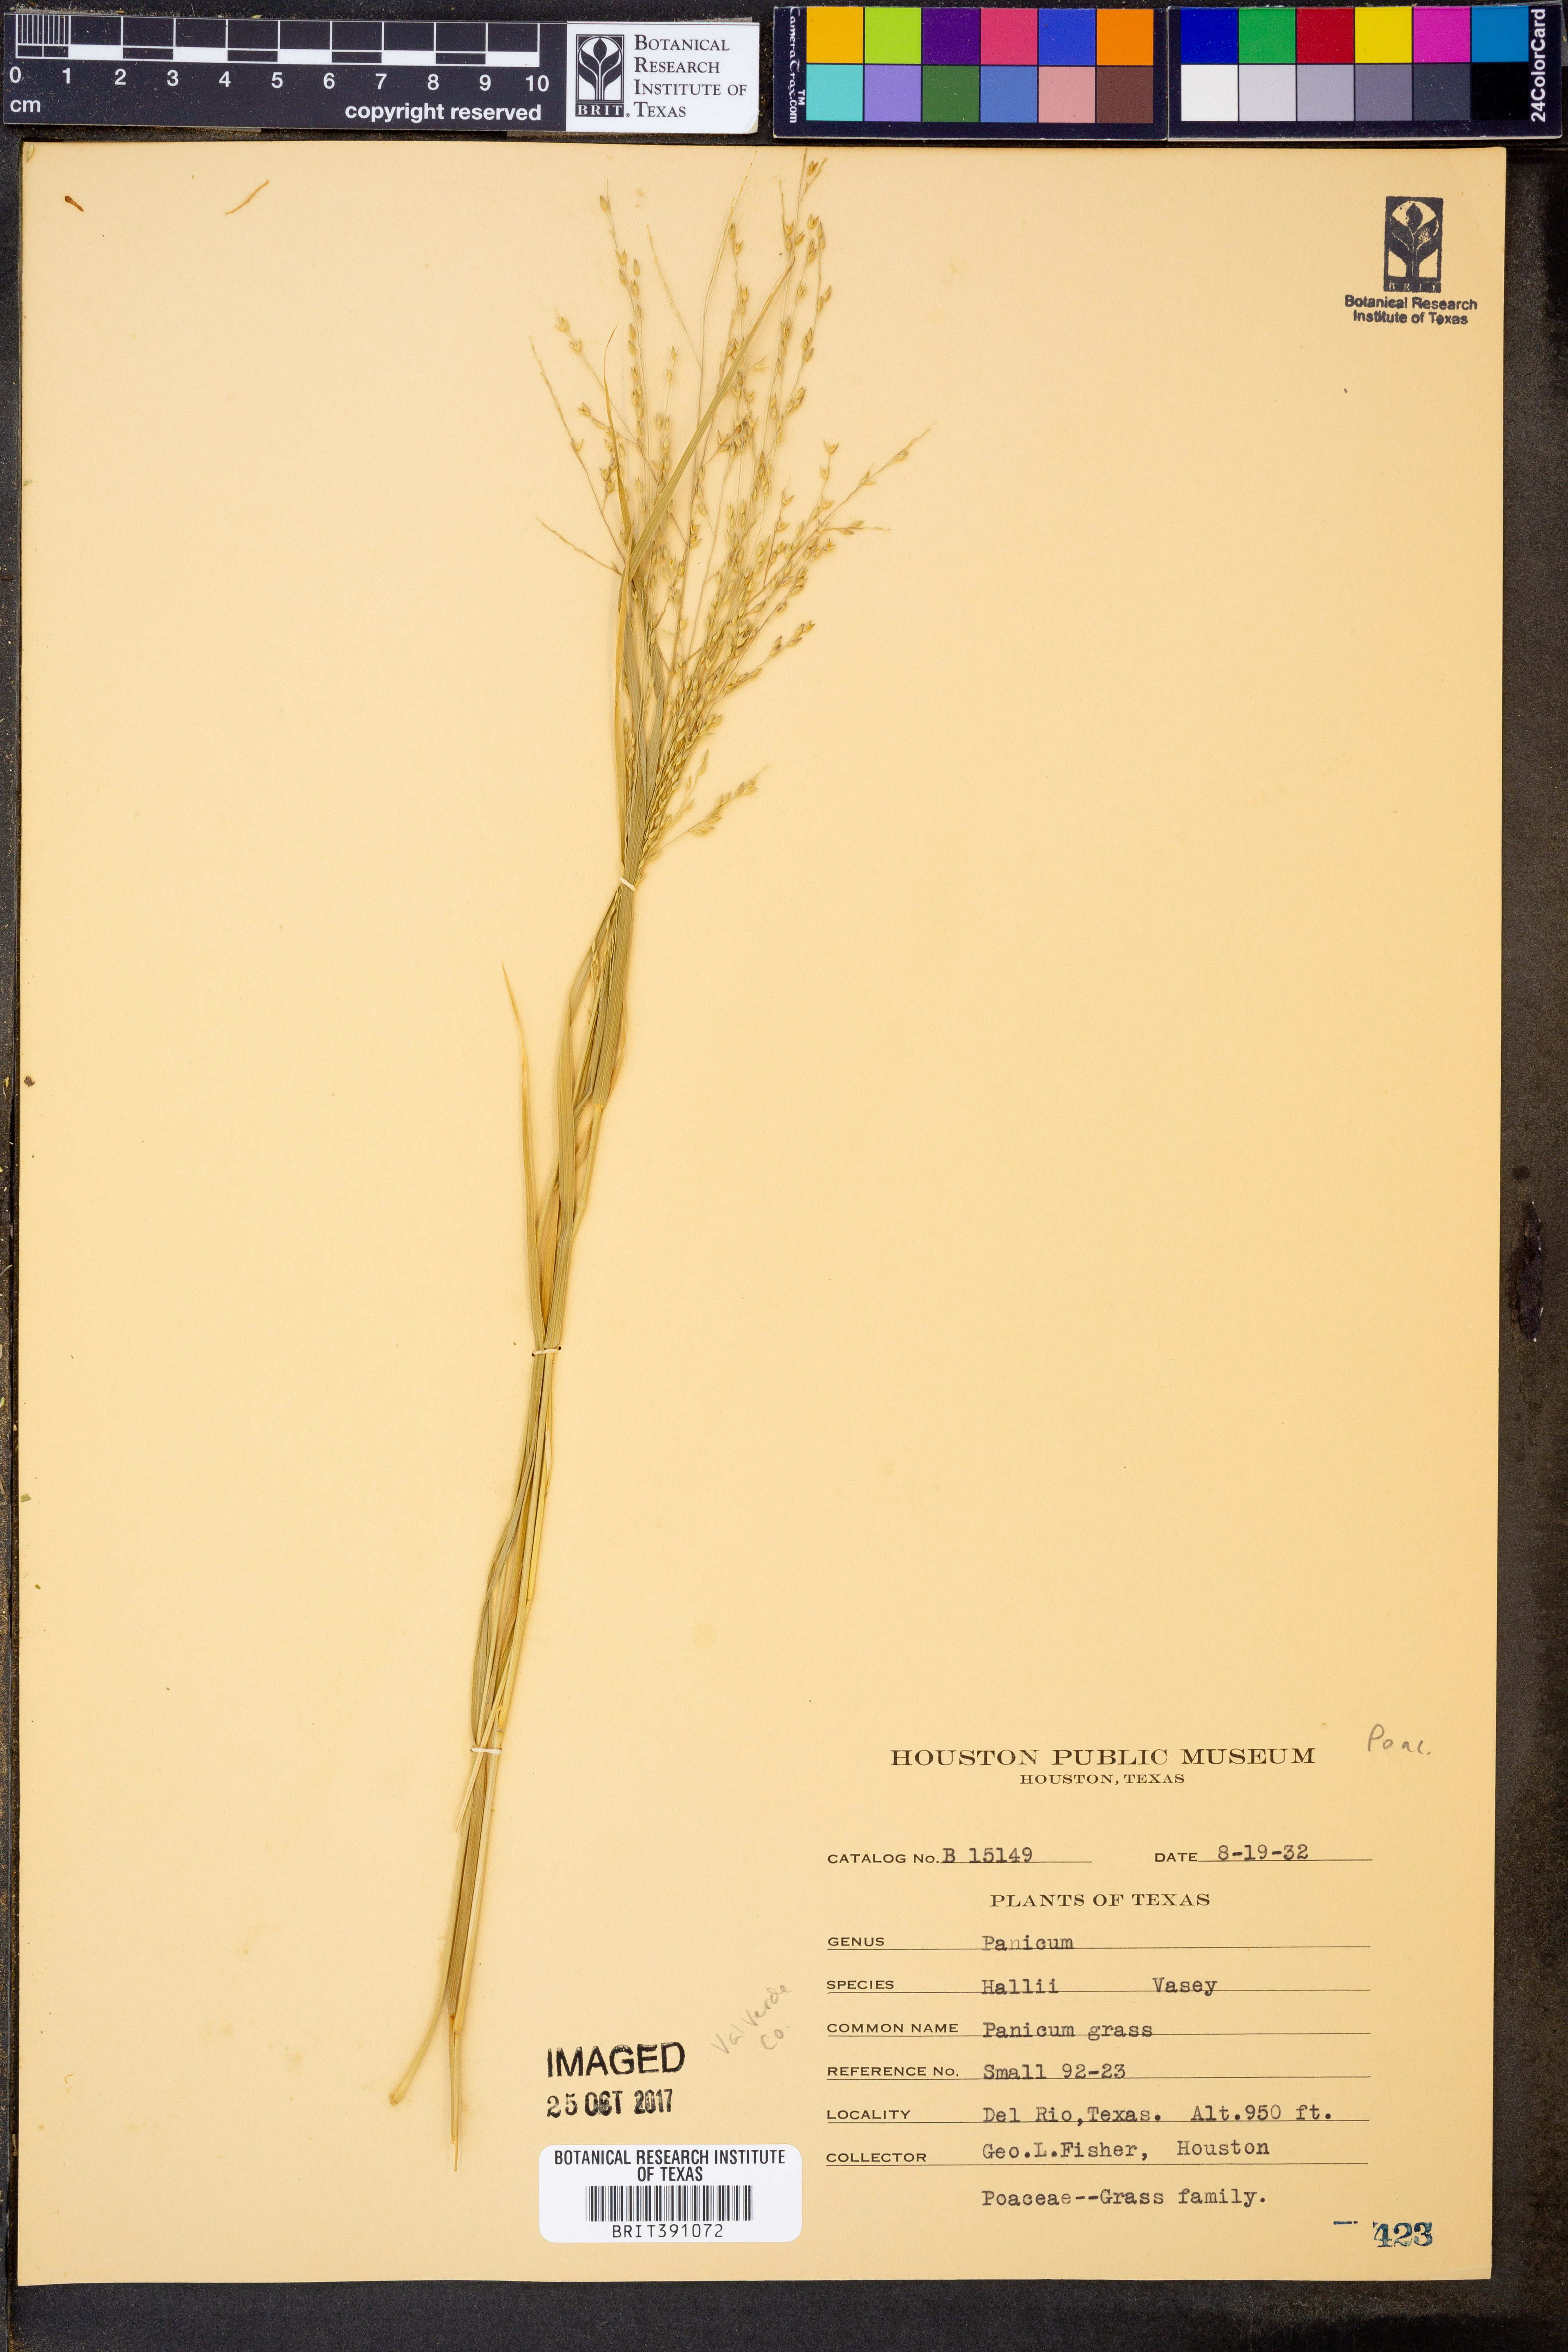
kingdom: Plantae
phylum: Tracheophyta
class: Liliopsida
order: Poales
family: Poaceae
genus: Panicum
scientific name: Panicum hallii
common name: Hall's witchgrass
